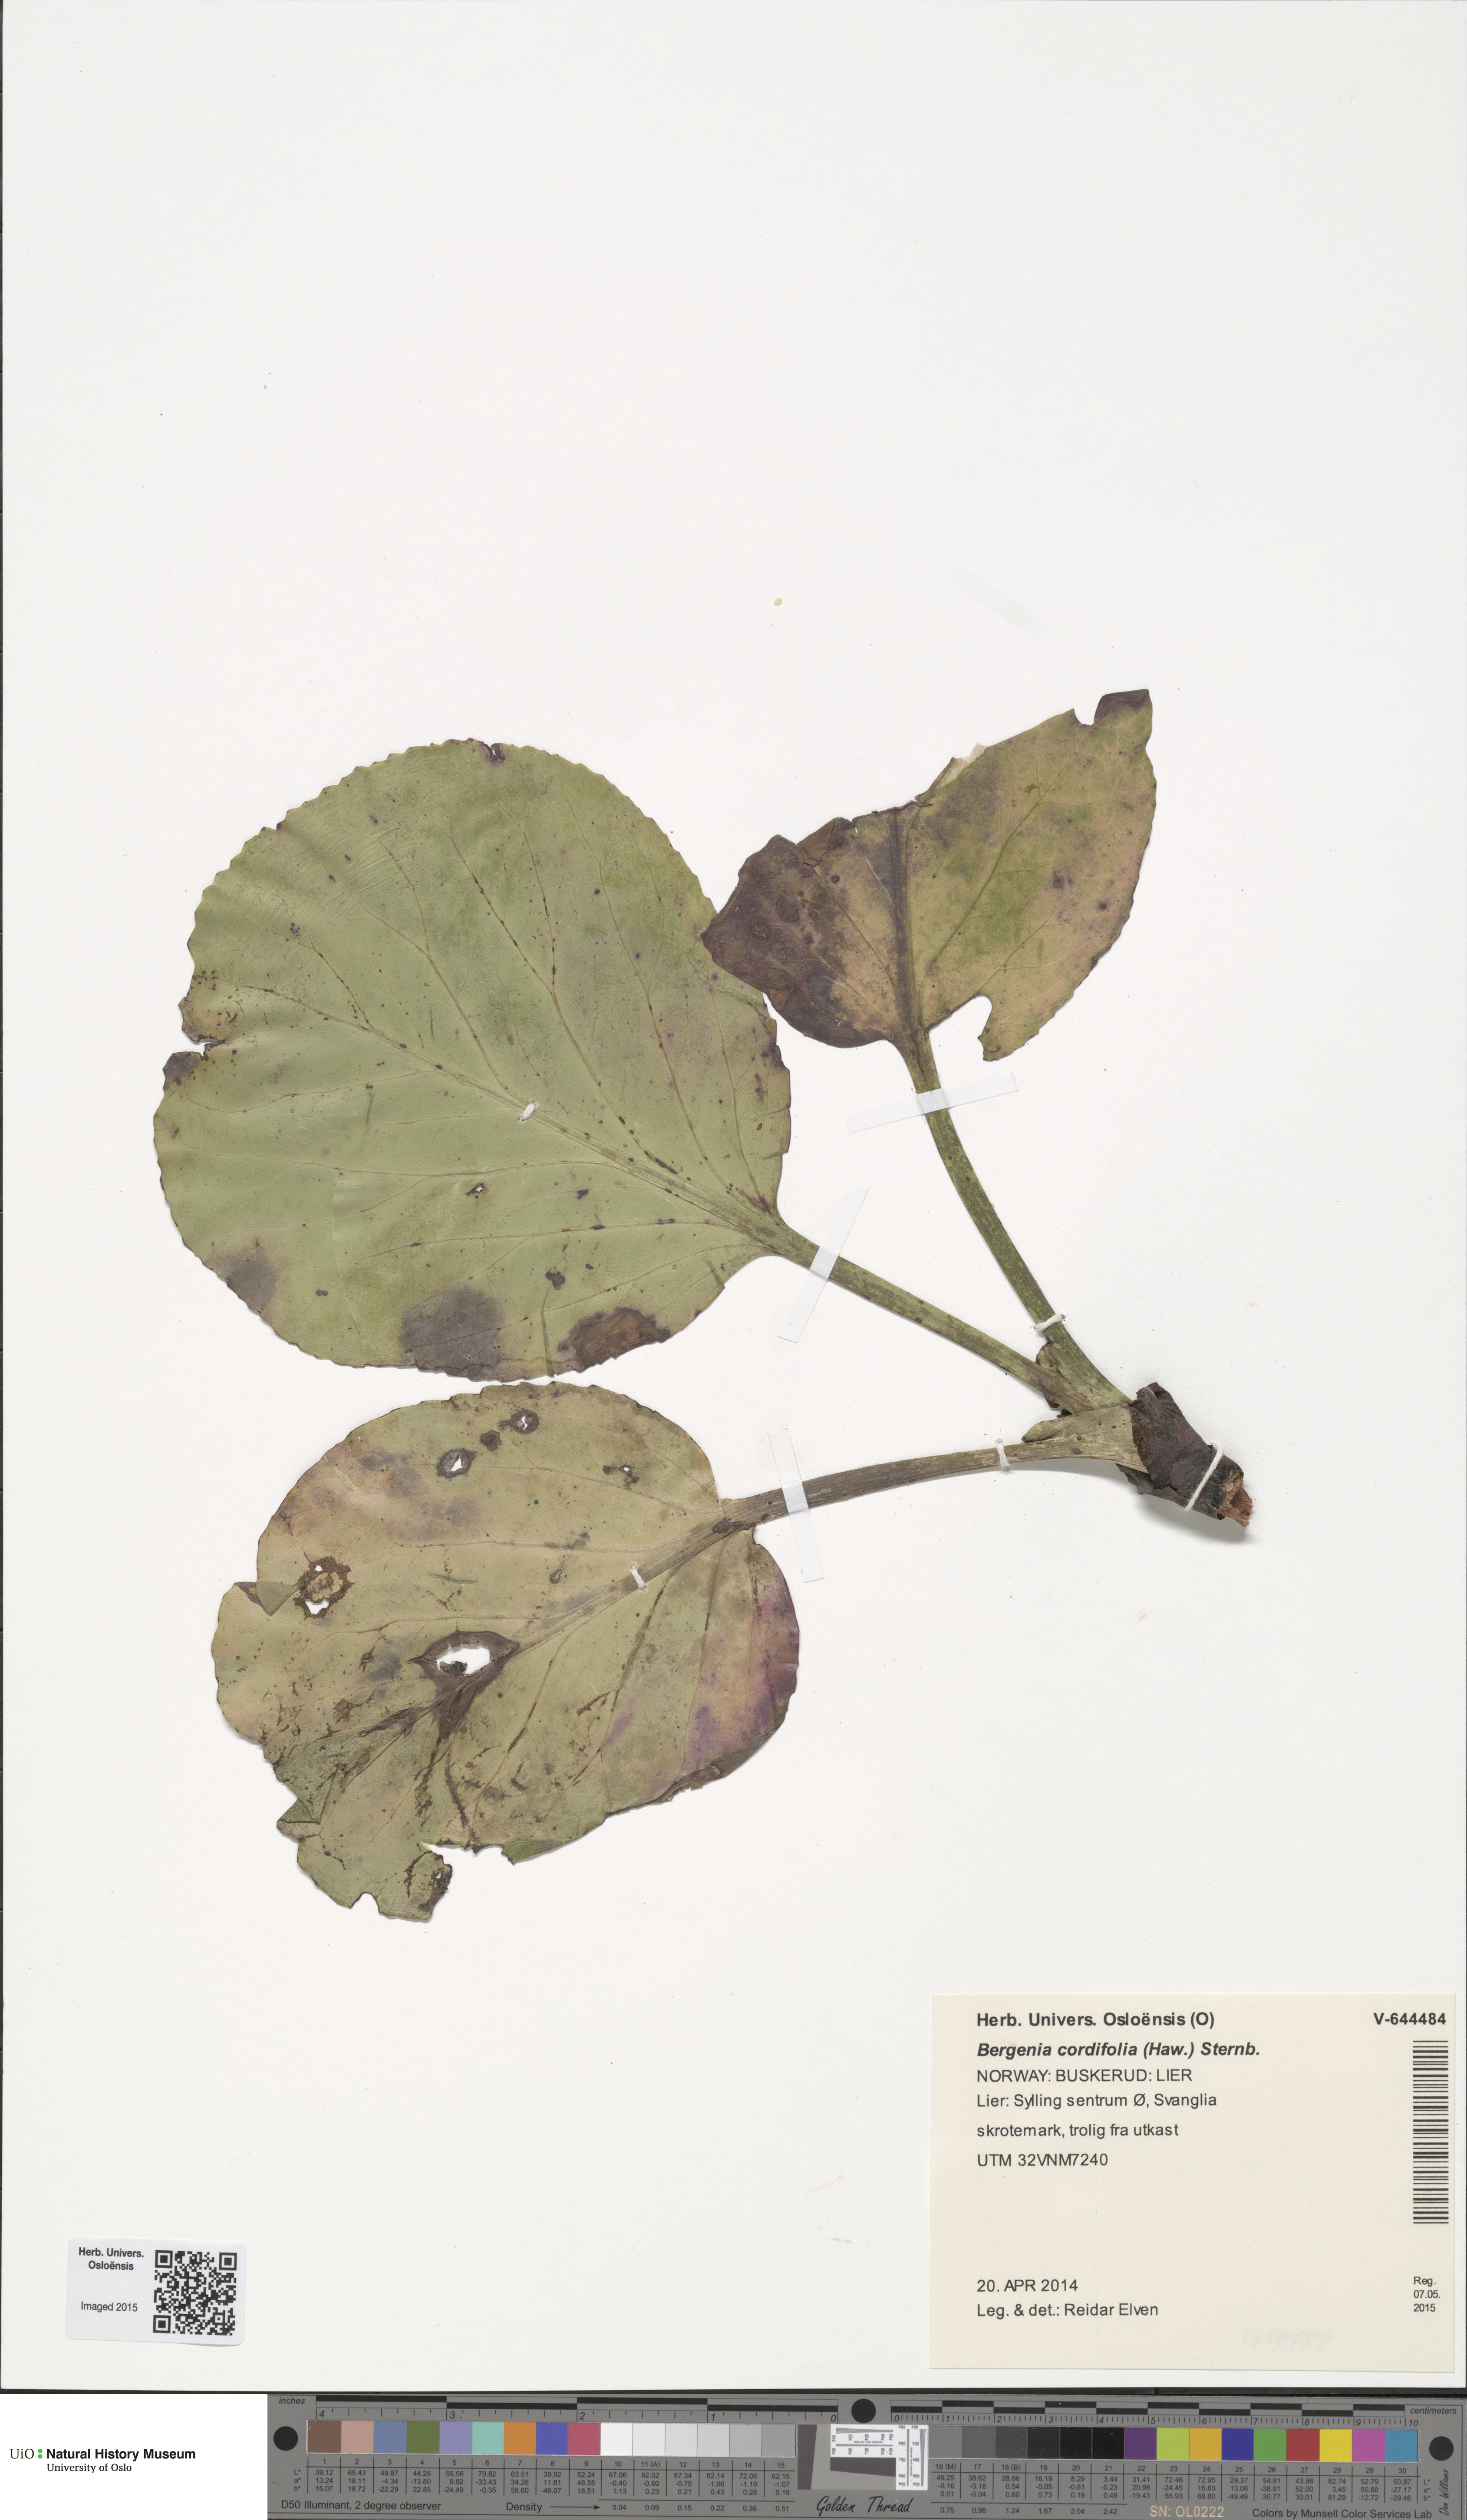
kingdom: Plantae
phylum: Tracheophyta
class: Magnoliopsida
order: Saxifragales
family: Saxifragaceae
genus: Bergenia
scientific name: Bergenia crassifolia
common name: Elephant-ears
